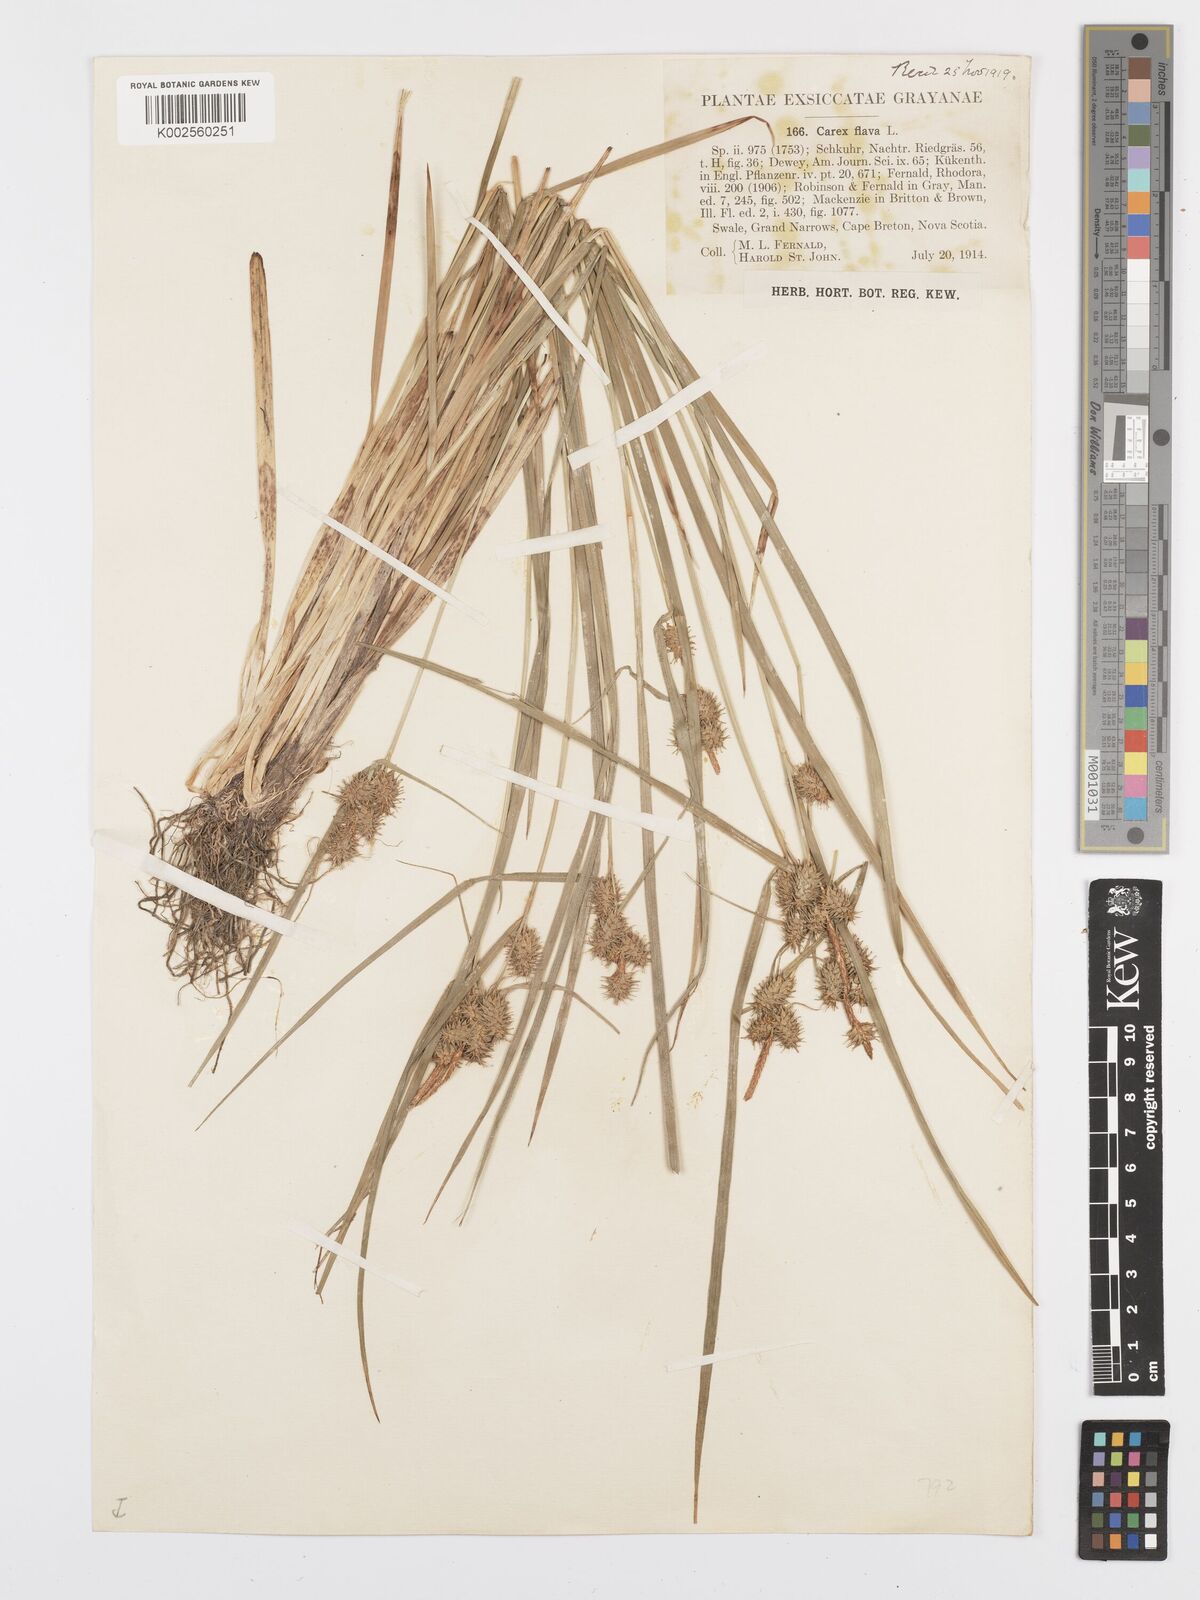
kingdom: Plantae
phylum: Tracheophyta
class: Liliopsida
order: Poales
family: Cyperaceae
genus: Carex
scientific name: Carex flava
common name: Large yellow-sedge
